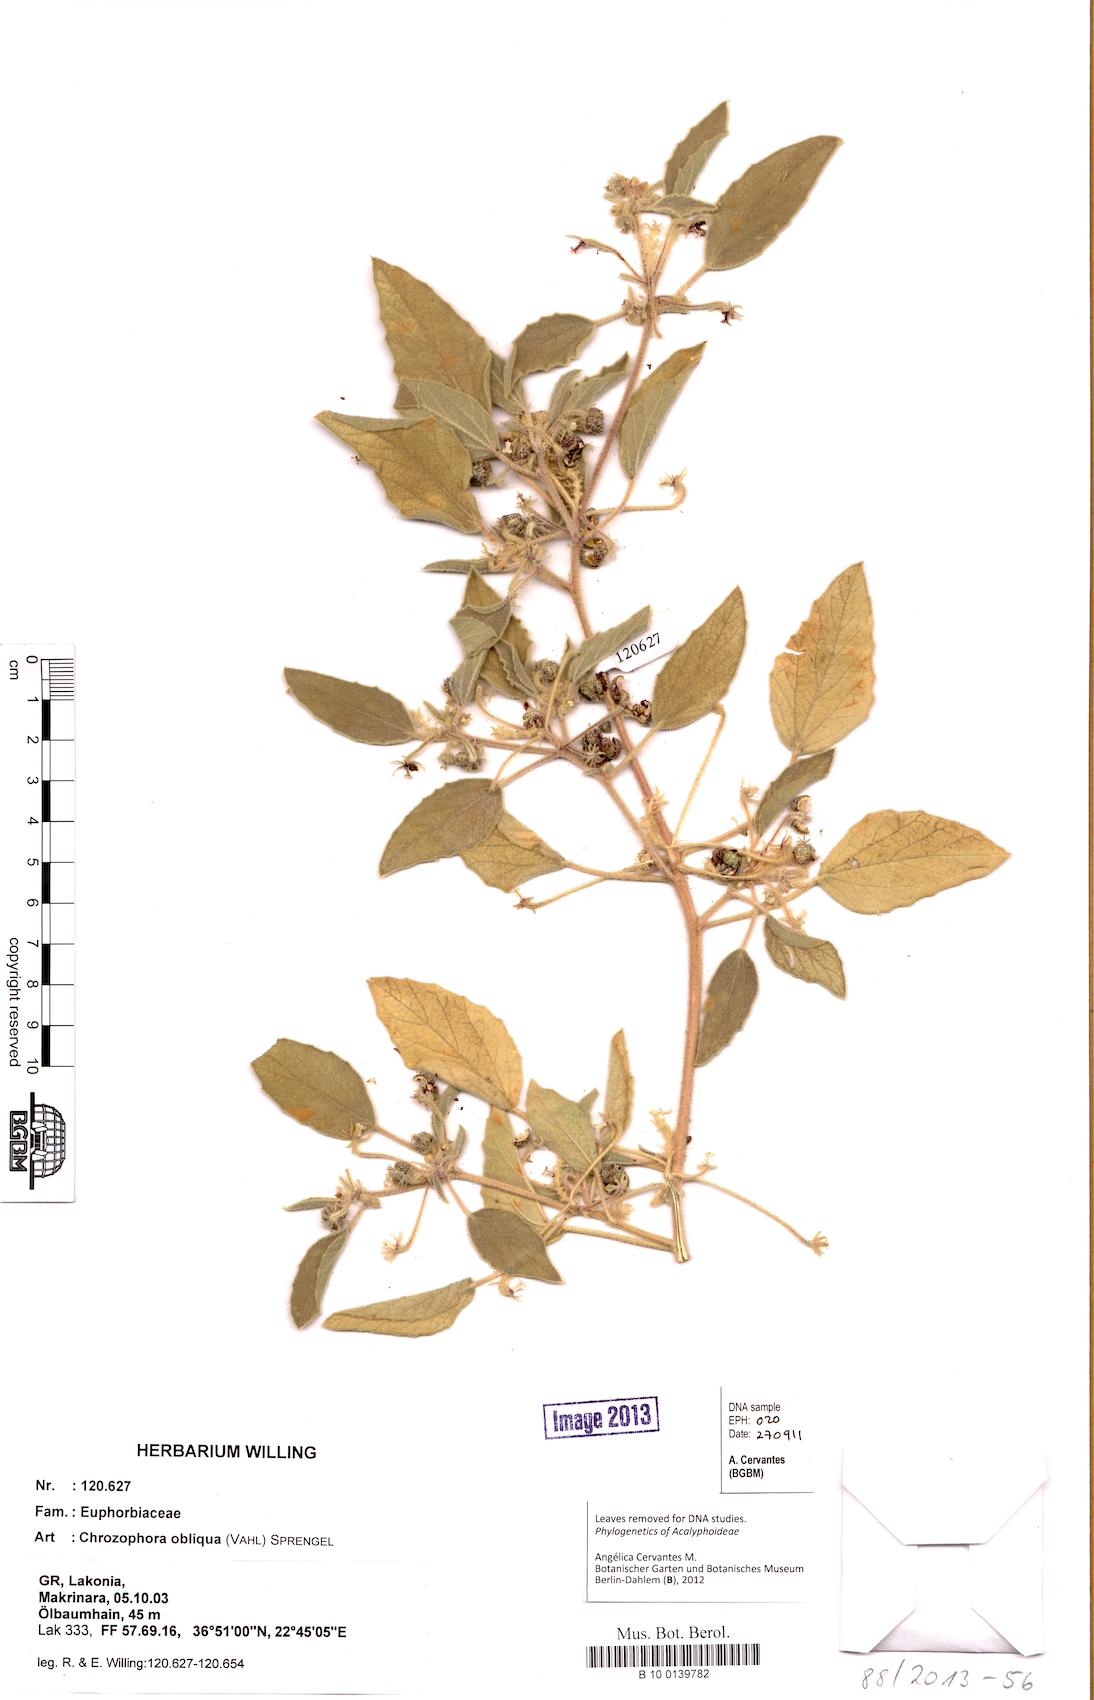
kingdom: Plantae
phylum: Tracheophyta
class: Magnoliopsida
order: Malpighiales
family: Euphorbiaceae
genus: Chrozophora
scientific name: Chrozophora tinctoria
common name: Dyer's litmus
